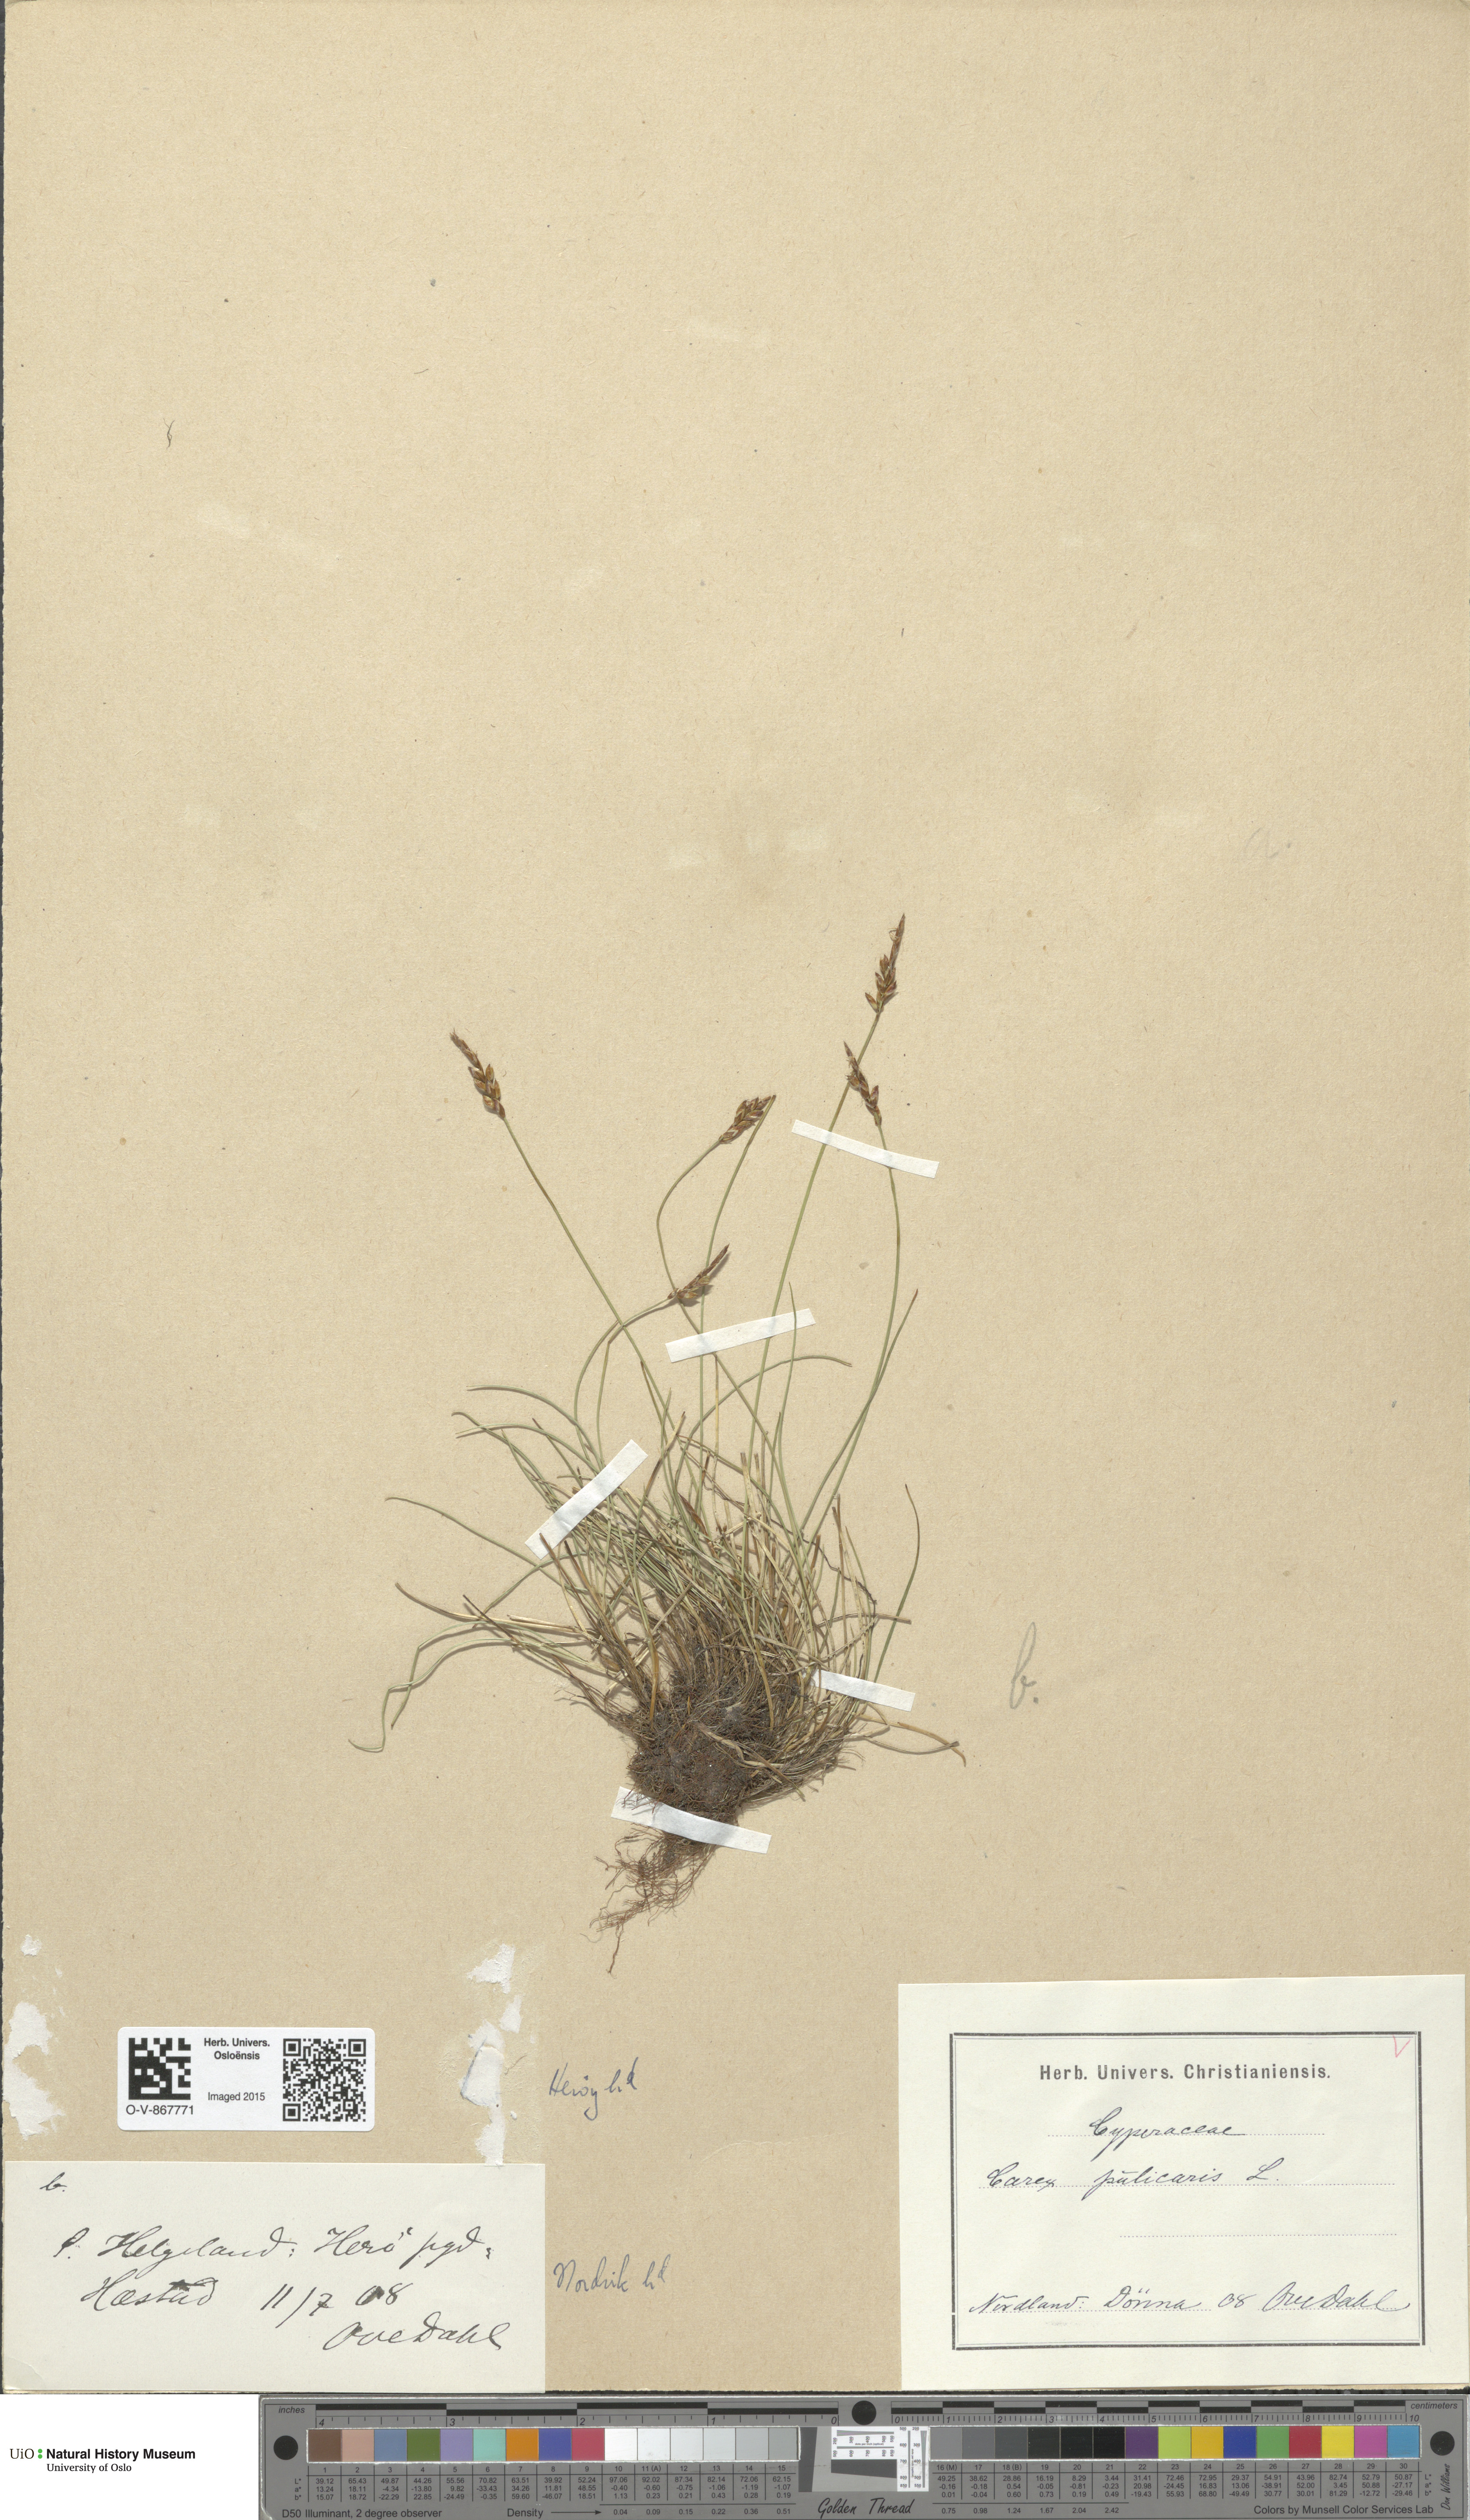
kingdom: Plantae
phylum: Tracheophyta
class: Liliopsida
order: Poales
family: Cyperaceae
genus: Carex
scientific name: Carex pulicaris
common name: Flea sedge
